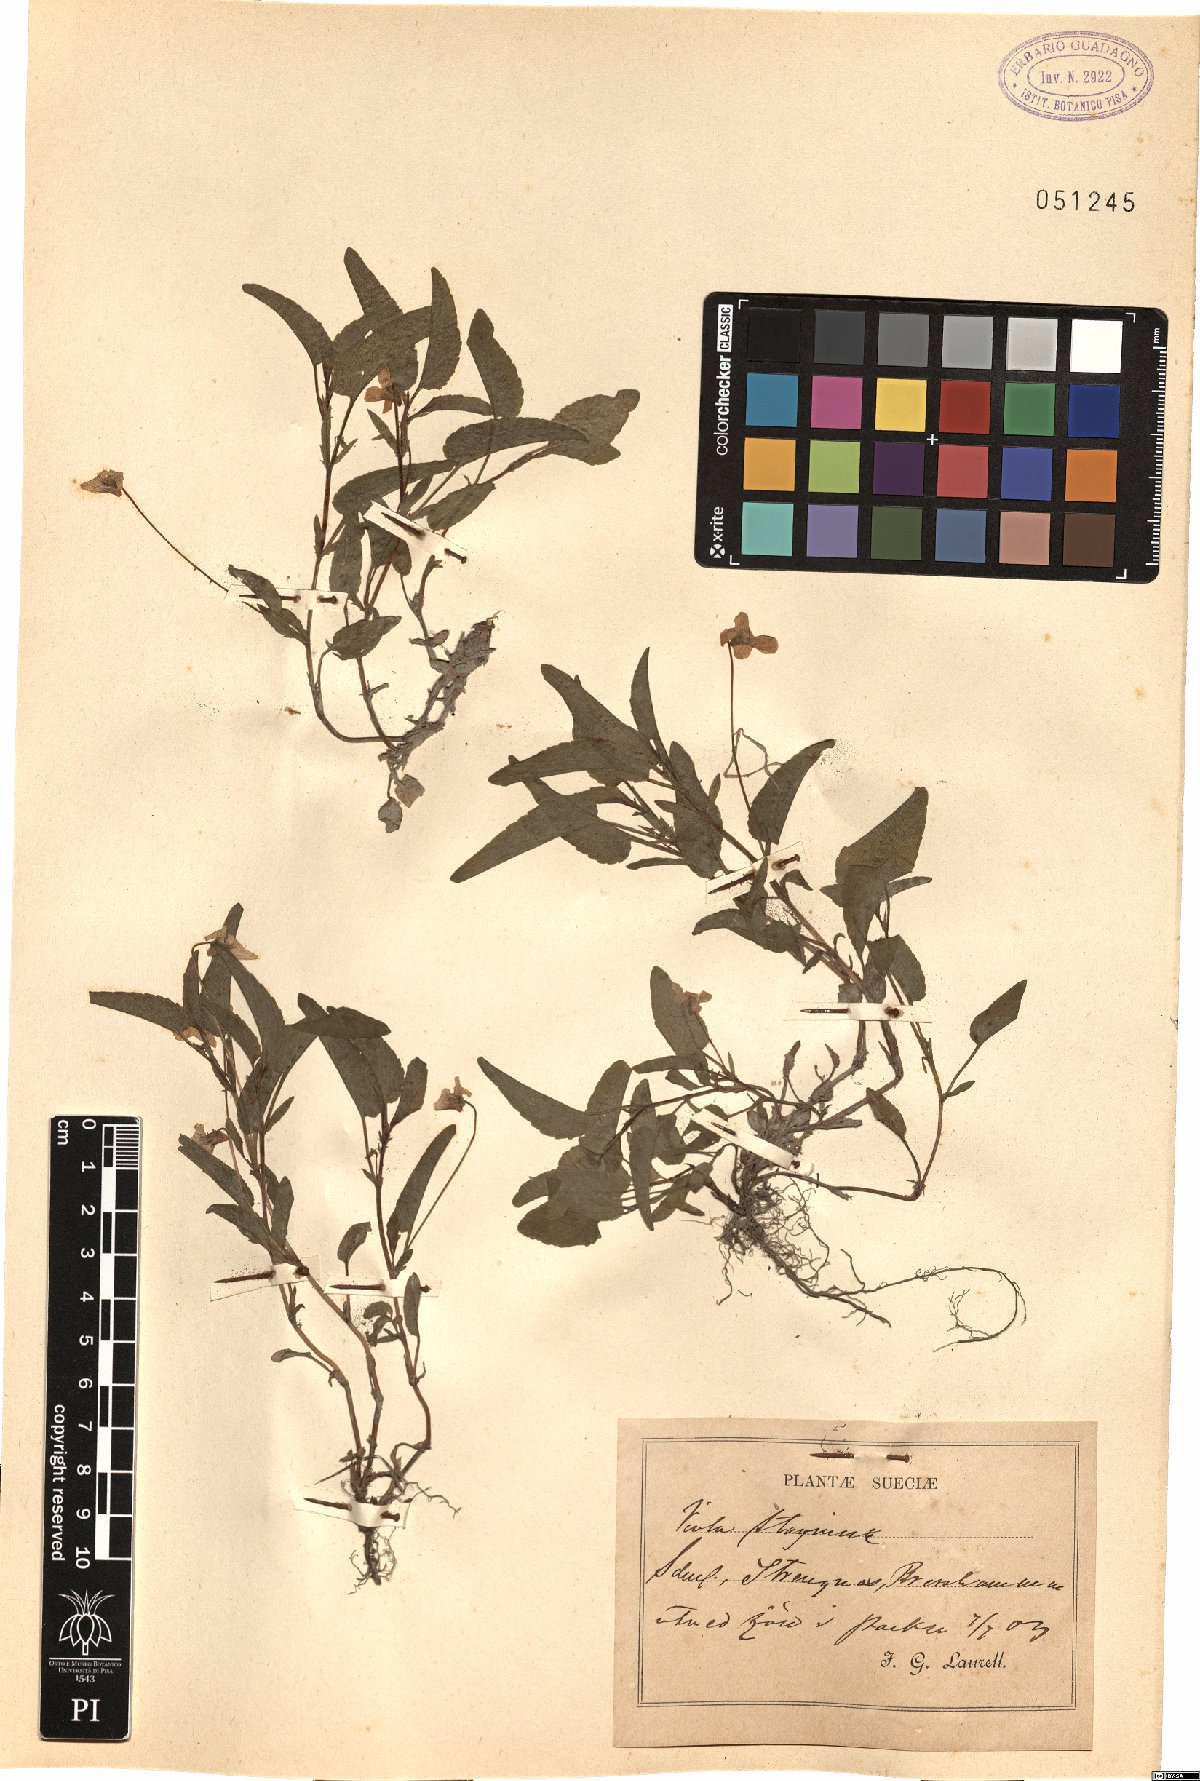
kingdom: Plantae
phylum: Tracheophyta
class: Magnoliopsida
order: Malpighiales
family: Violaceae
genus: Viola
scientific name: Viola stagnina
